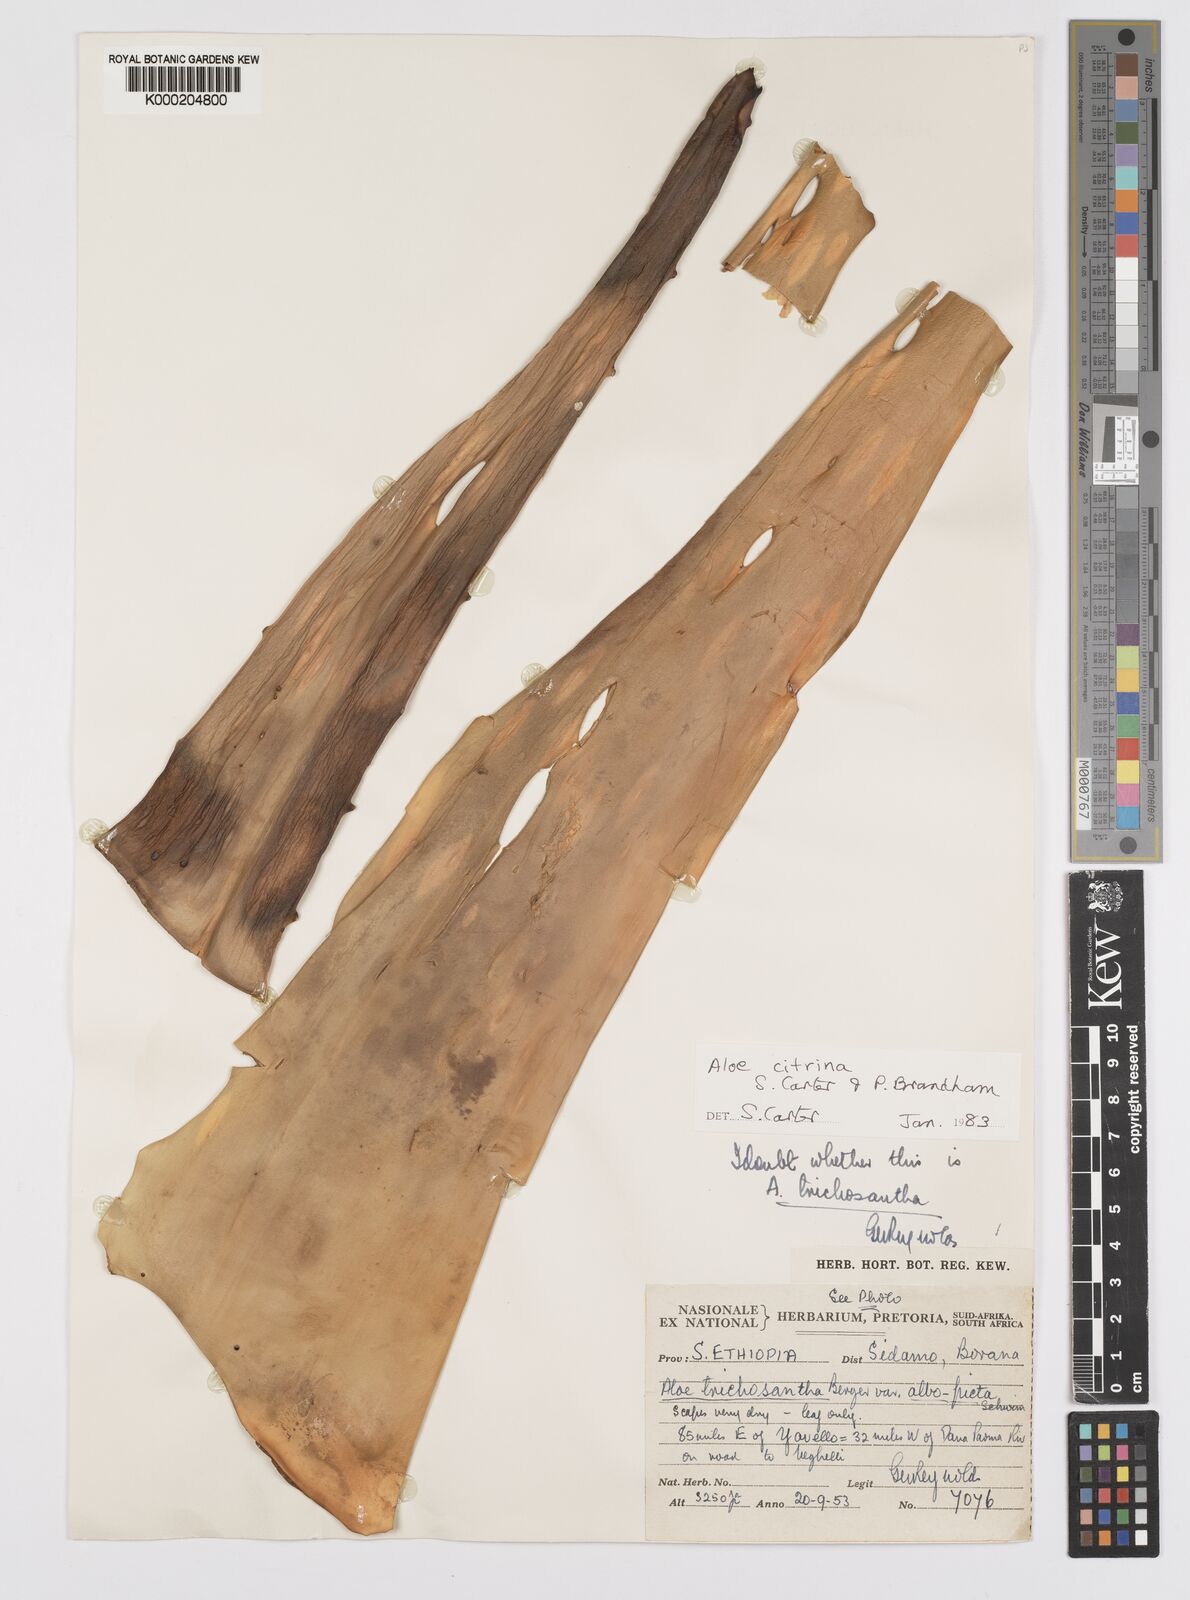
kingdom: Plantae
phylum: Tracheophyta
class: Liliopsida
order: Asparagales
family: Asphodelaceae
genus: Aloe
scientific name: Aloe citrina
